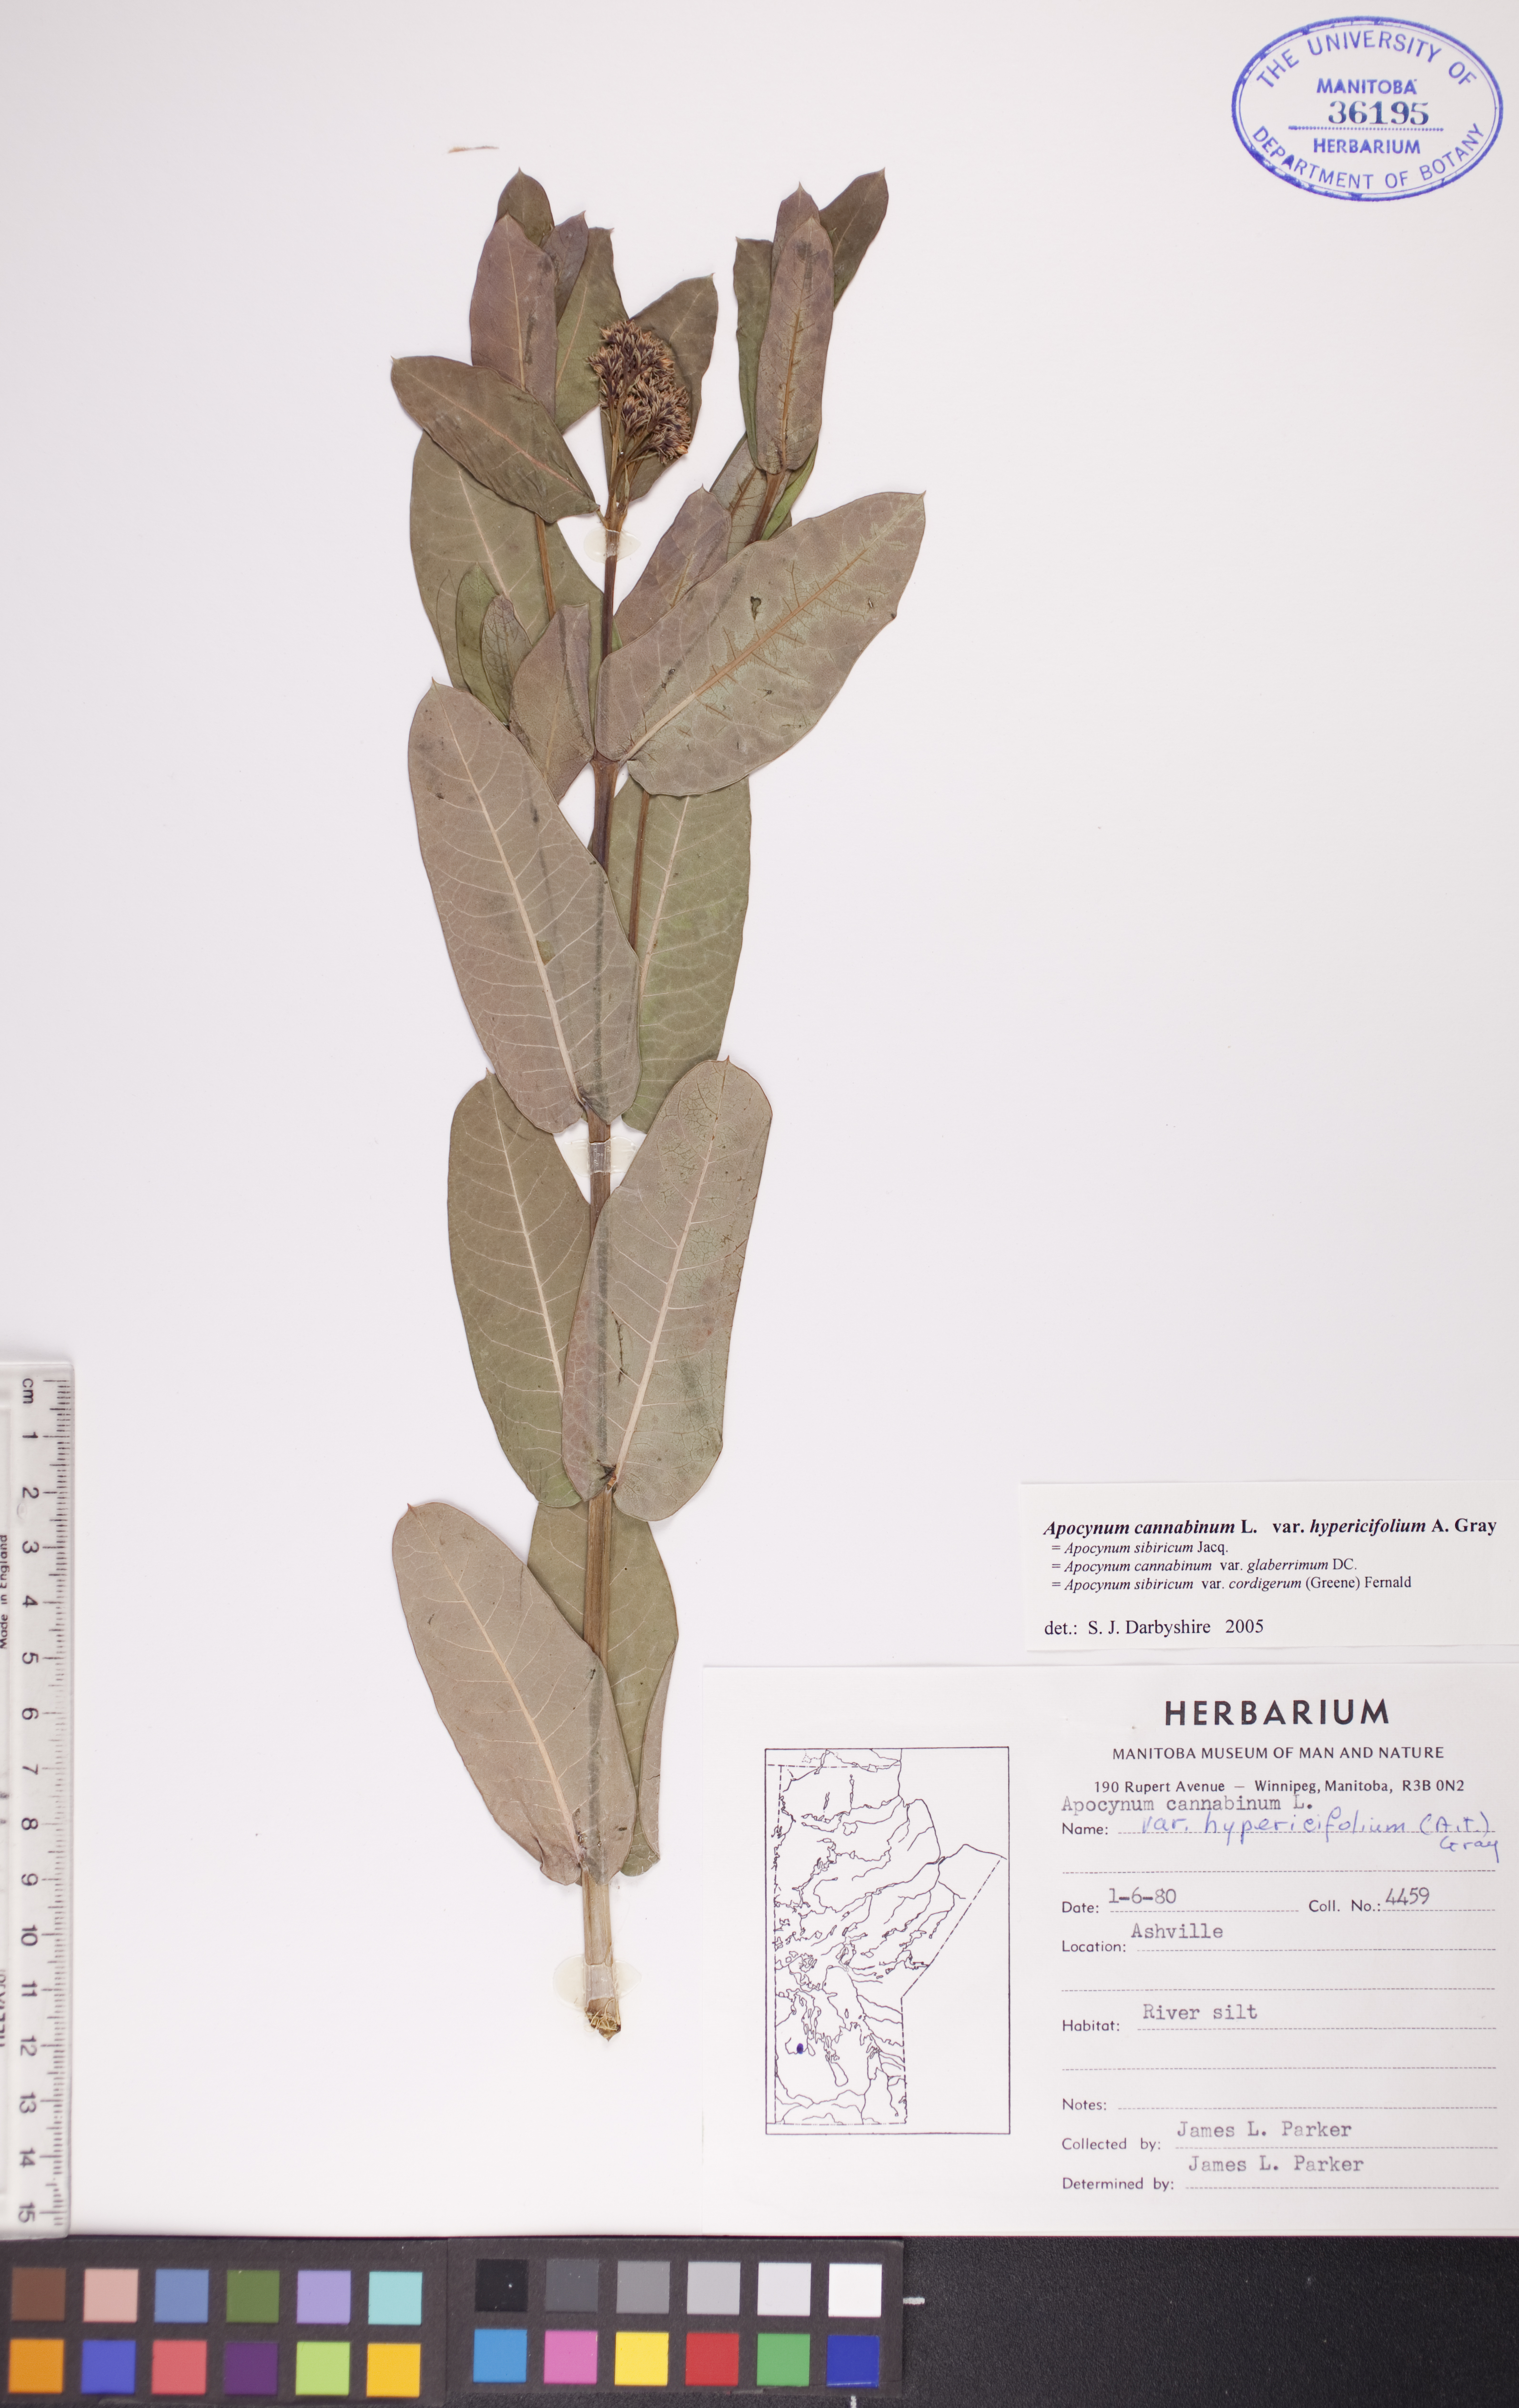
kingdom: Plantae
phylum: Tracheophyta
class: Magnoliopsida
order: Gentianales
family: Apocynaceae
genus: Apocynum
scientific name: Apocynum cannabinum
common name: Hemp dogbane
